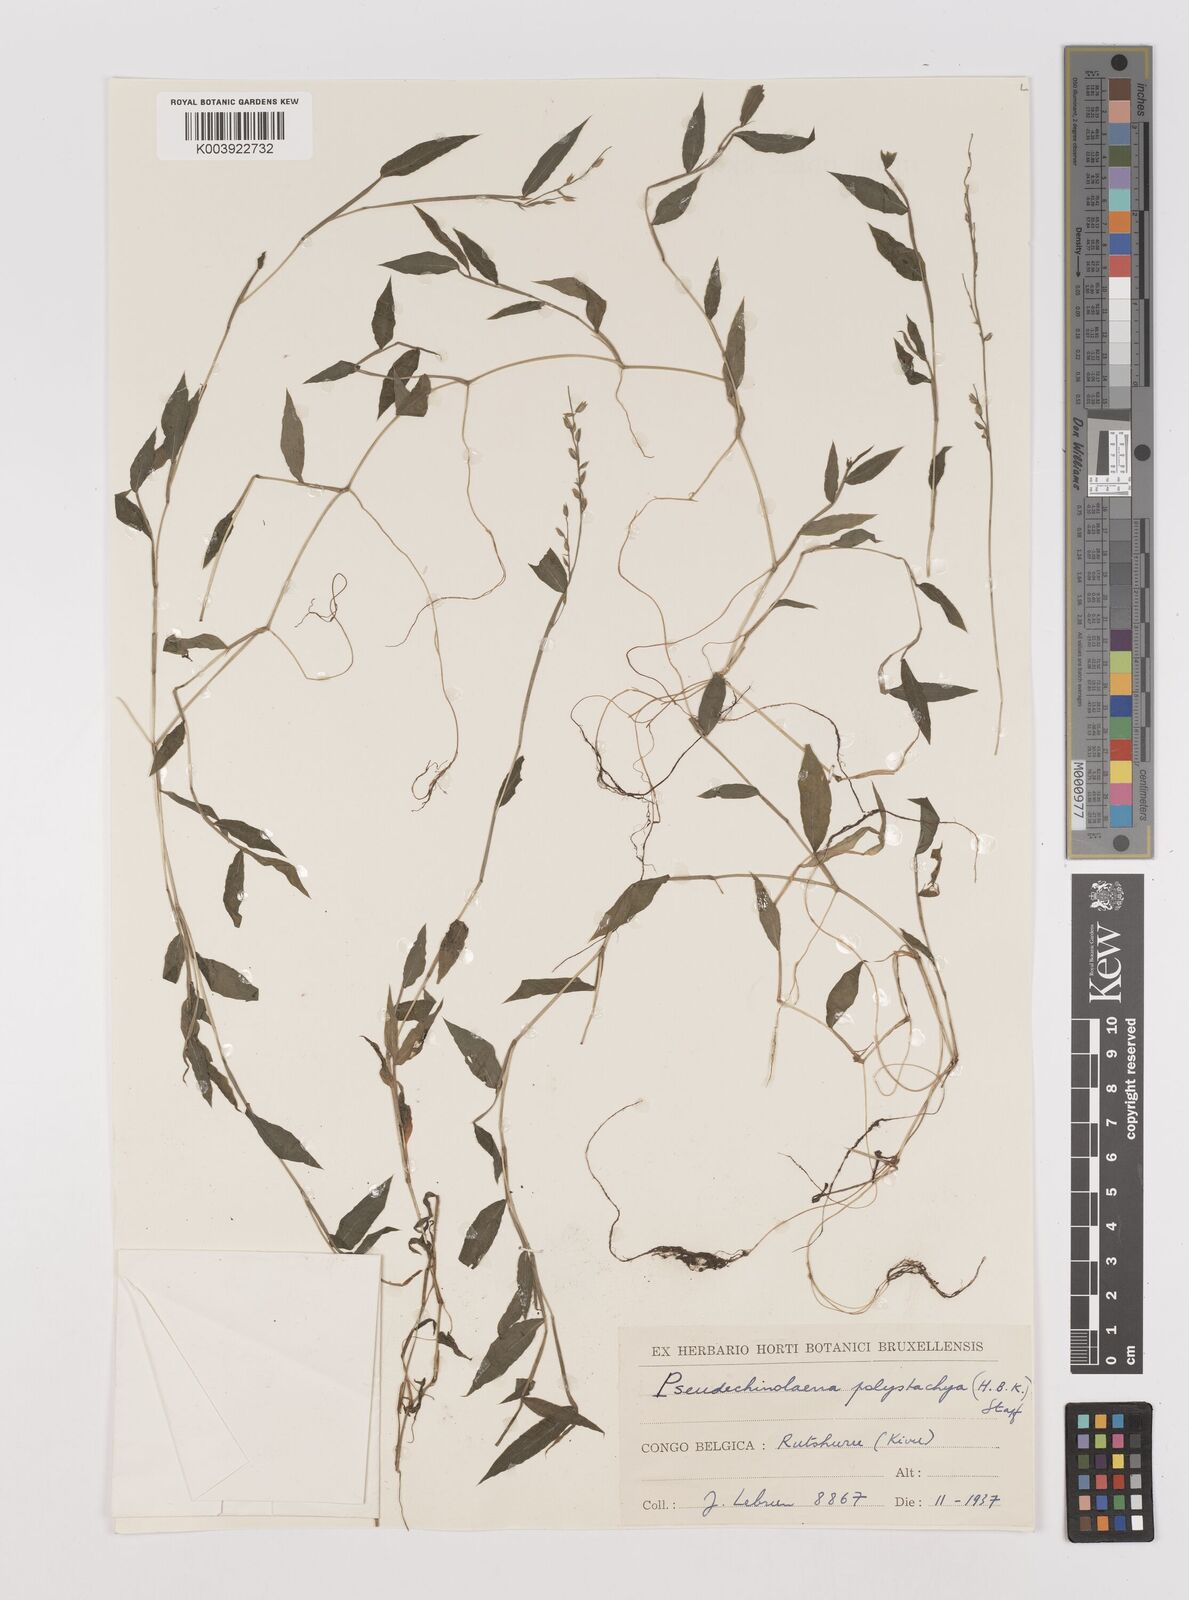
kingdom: Plantae
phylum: Tracheophyta
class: Liliopsida
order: Poales
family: Poaceae
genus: Pseudechinolaena
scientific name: Pseudechinolaena polystachya
